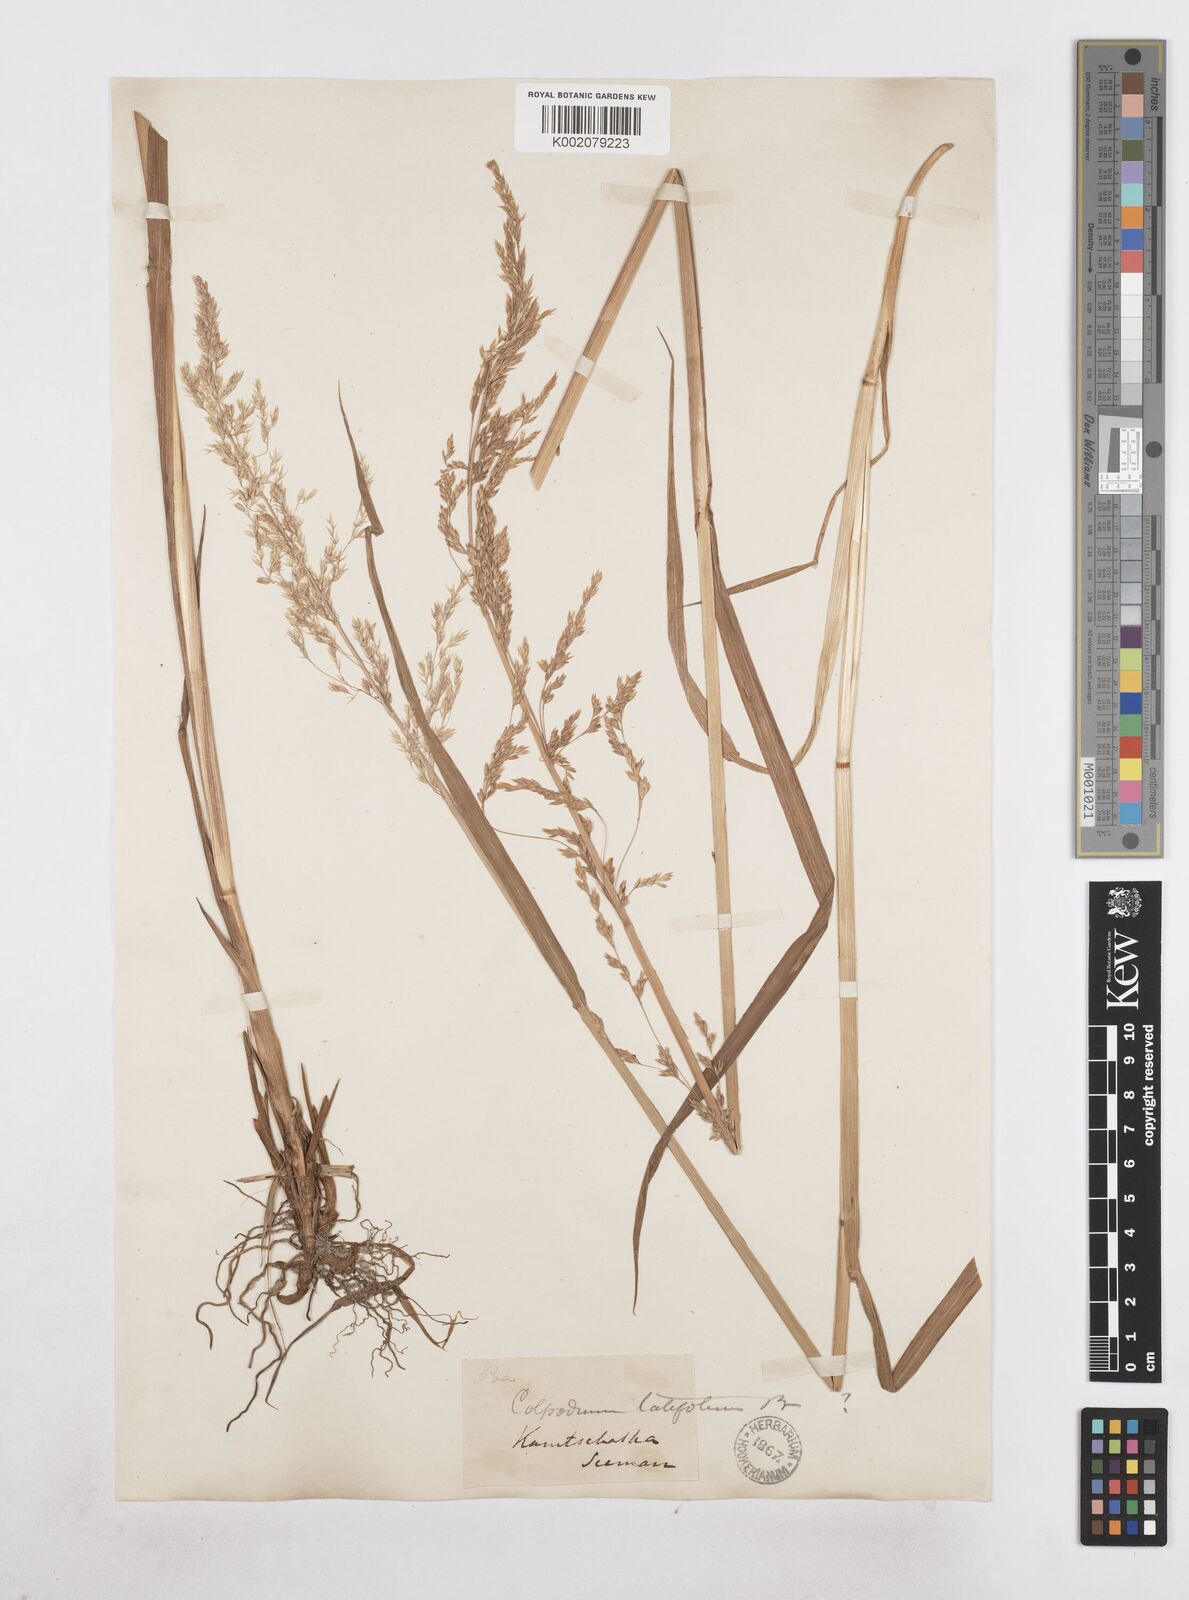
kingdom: Plantae
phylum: Tracheophyta
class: Liliopsida
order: Poales
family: Poaceae
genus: Arctagrostis
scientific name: Arctagrostis latifolia
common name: Arctic grass
